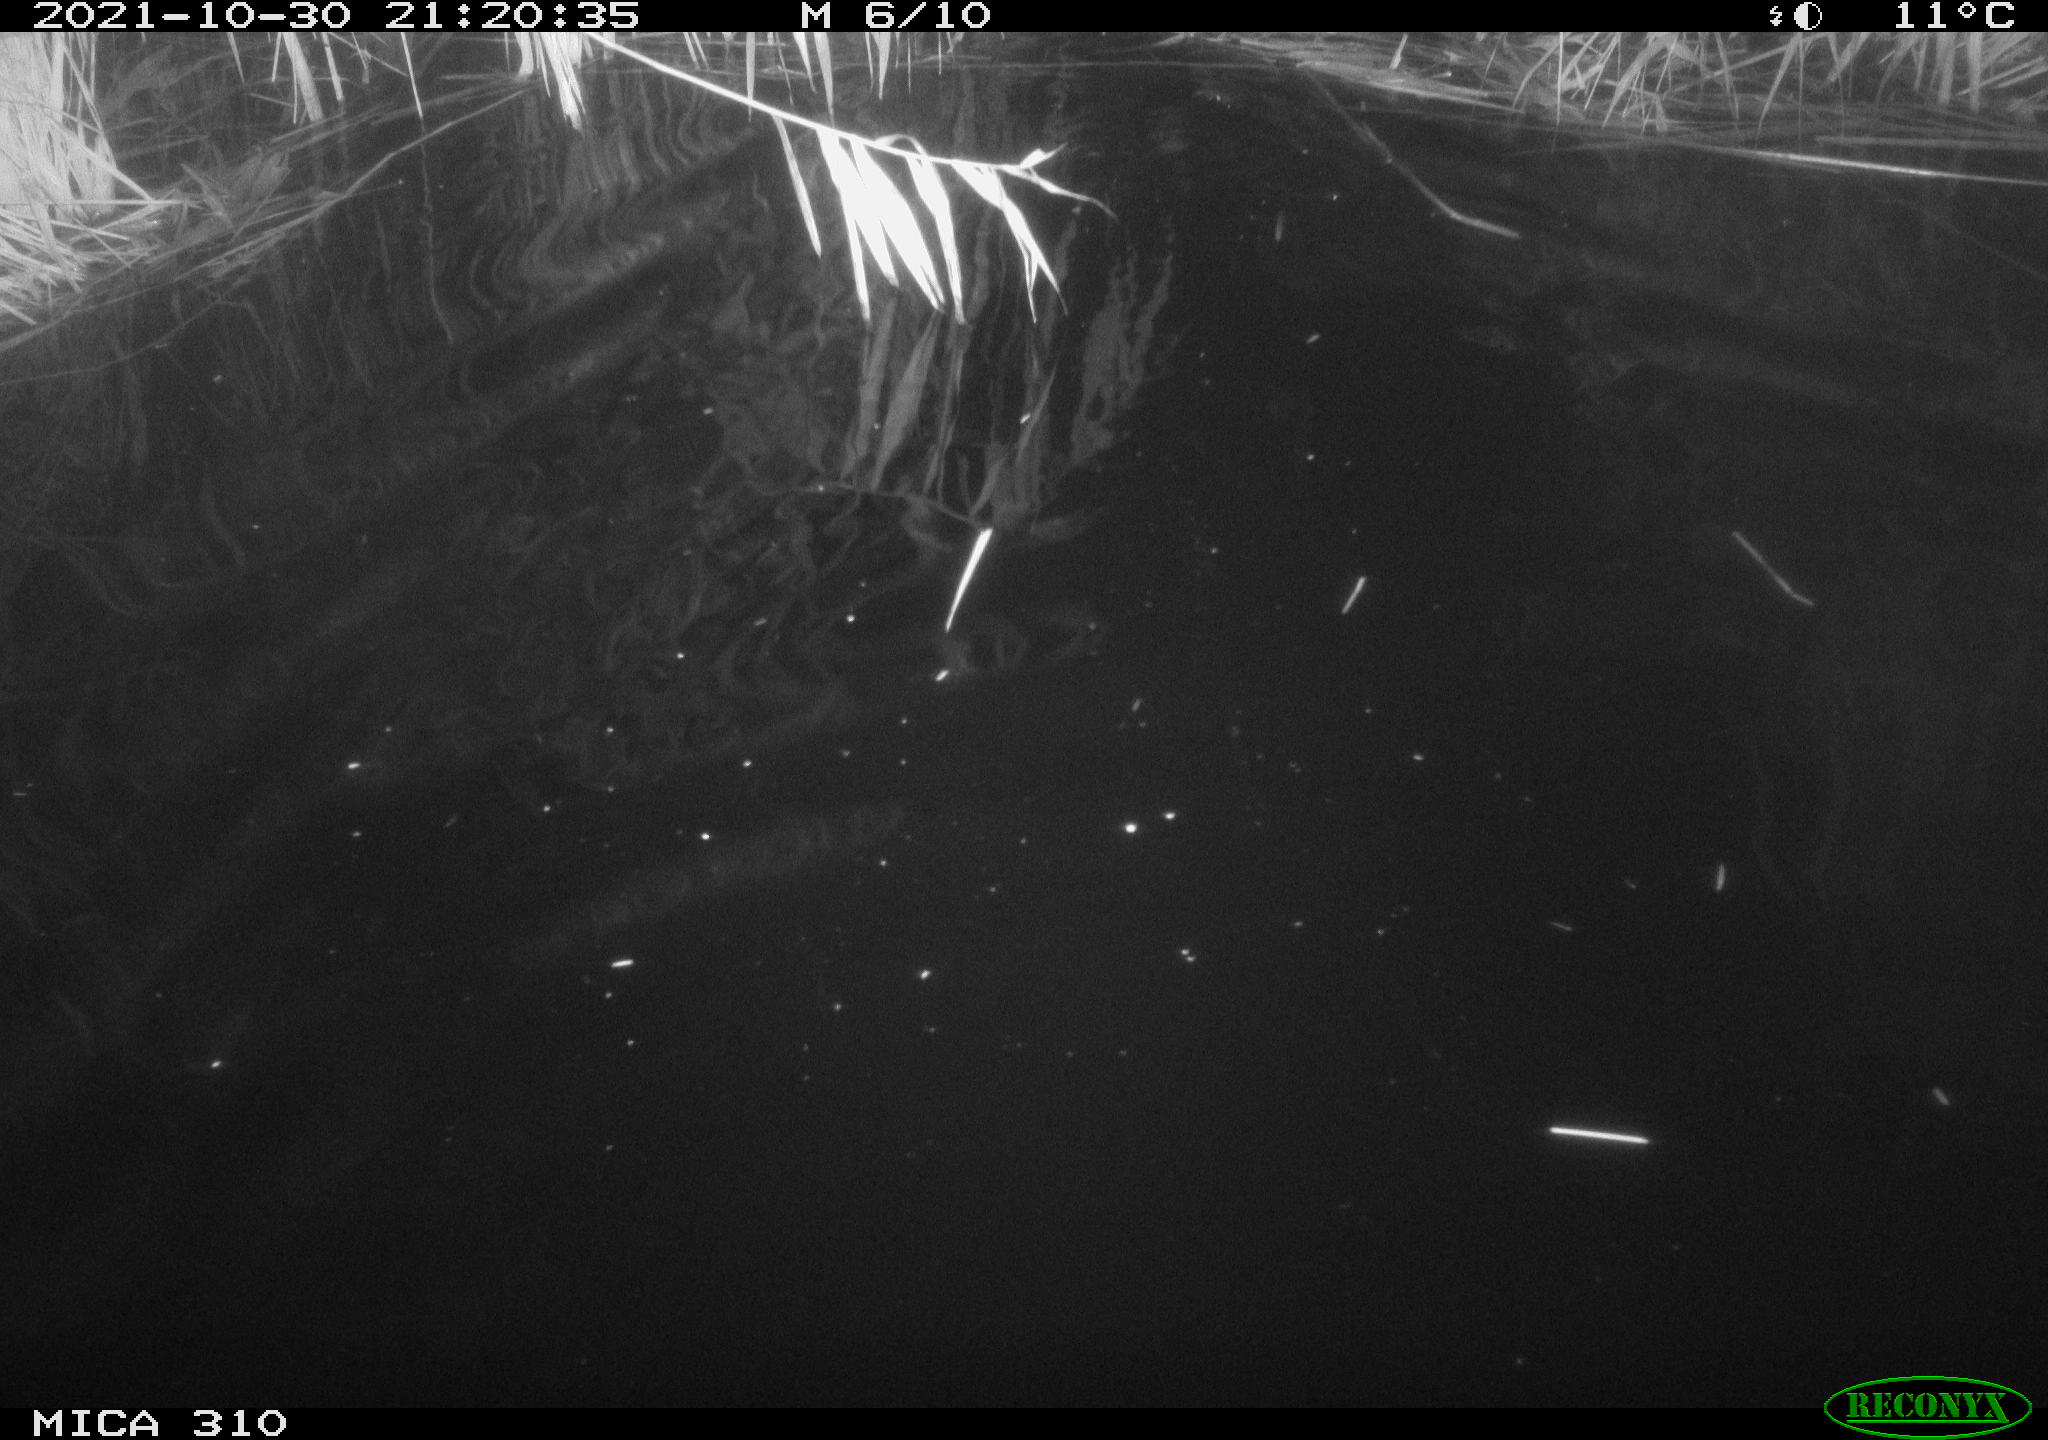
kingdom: Animalia
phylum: Chordata
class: Mammalia
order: Rodentia
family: Muridae
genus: Rattus
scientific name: Rattus norvegicus
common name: Brown rat
